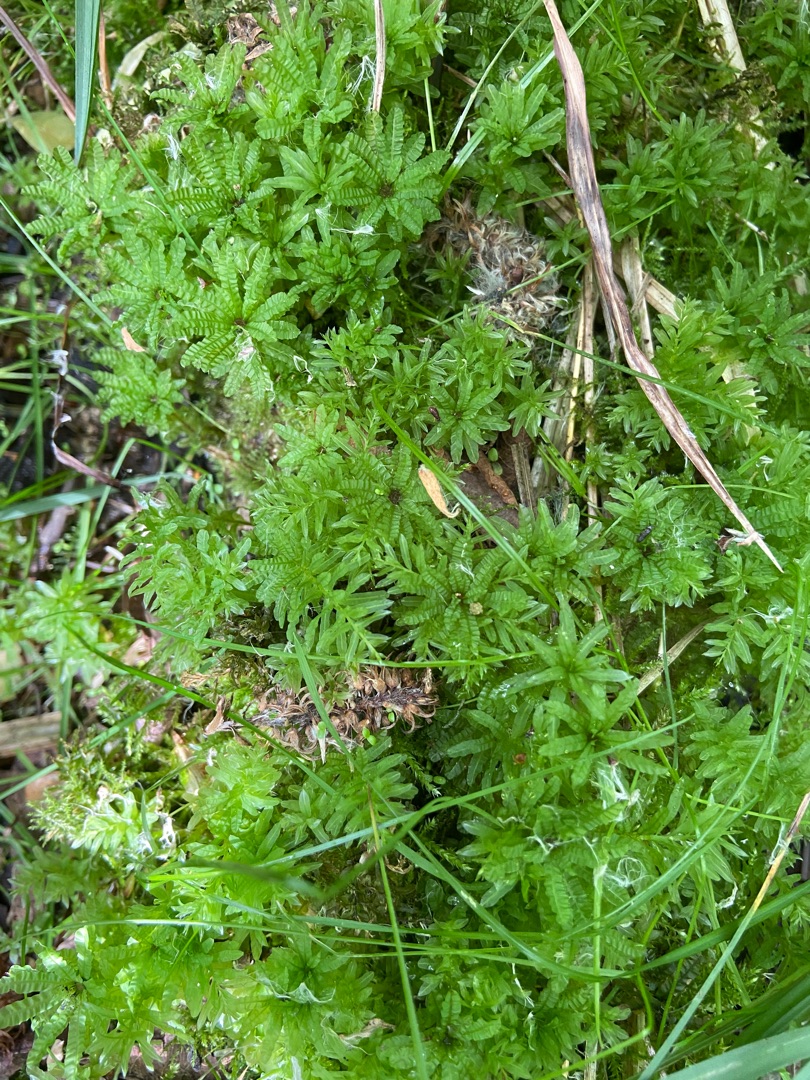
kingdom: Plantae
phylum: Bryophyta
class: Bryopsida
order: Bryales
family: Mniaceae
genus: Plagiomnium
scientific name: Plagiomnium undulatum
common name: Bølget krybstjerne
